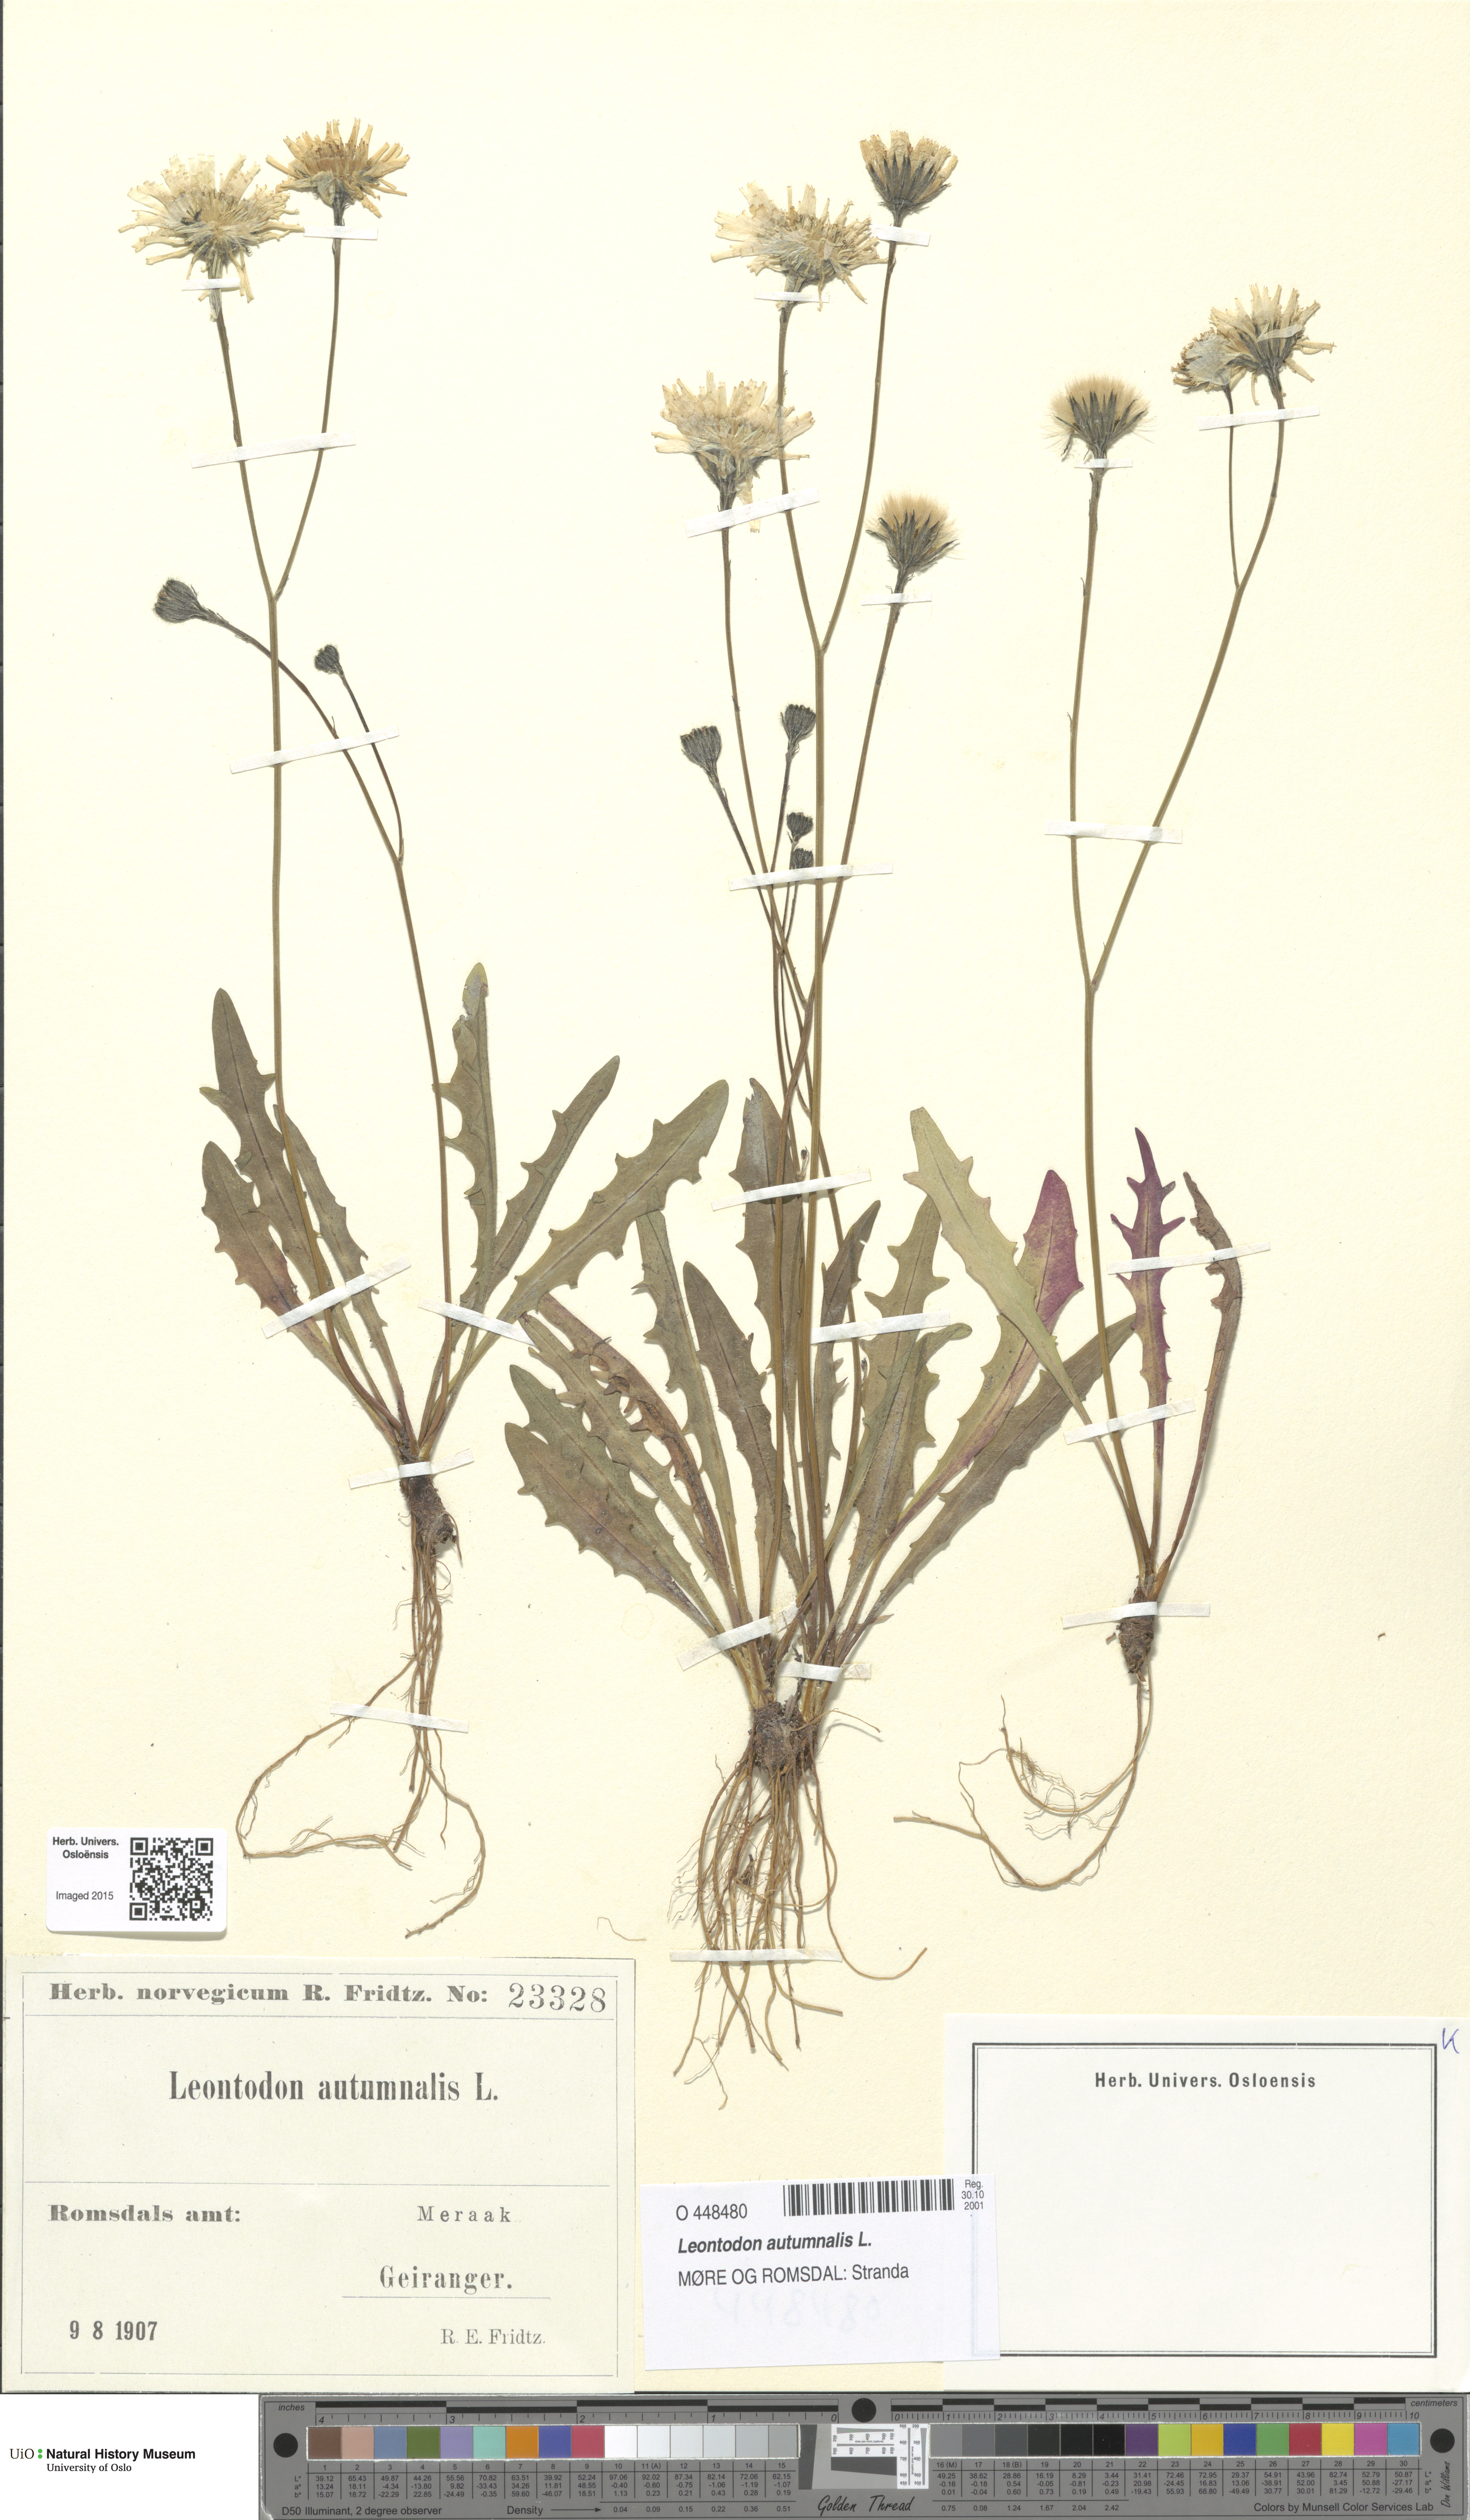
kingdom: Plantae
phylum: Tracheophyta
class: Magnoliopsida
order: Asterales
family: Asteraceae
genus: Scorzoneroides
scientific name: Scorzoneroides autumnalis
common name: Autumn hawkbit
